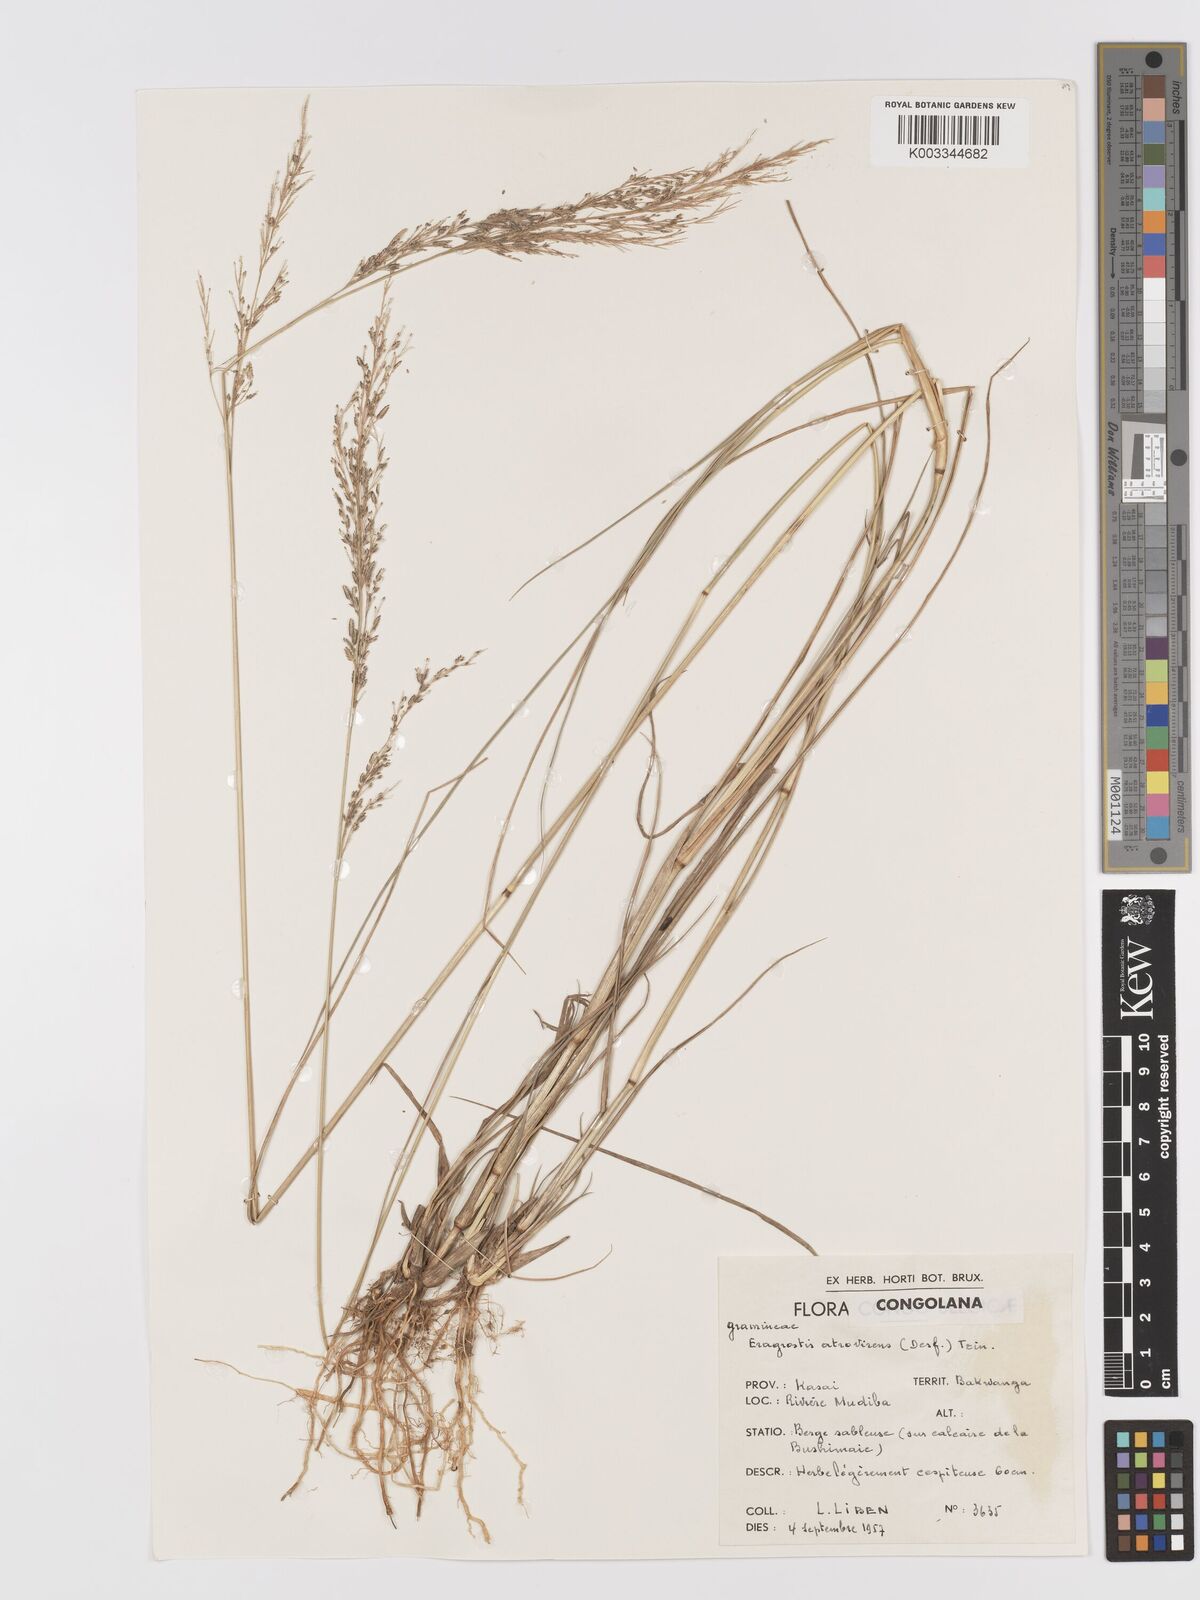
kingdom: Plantae
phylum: Tracheophyta
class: Liliopsida
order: Poales
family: Poaceae
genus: Eragrostis
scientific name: Eragrostis atrovirens
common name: Thalia lovegrass
